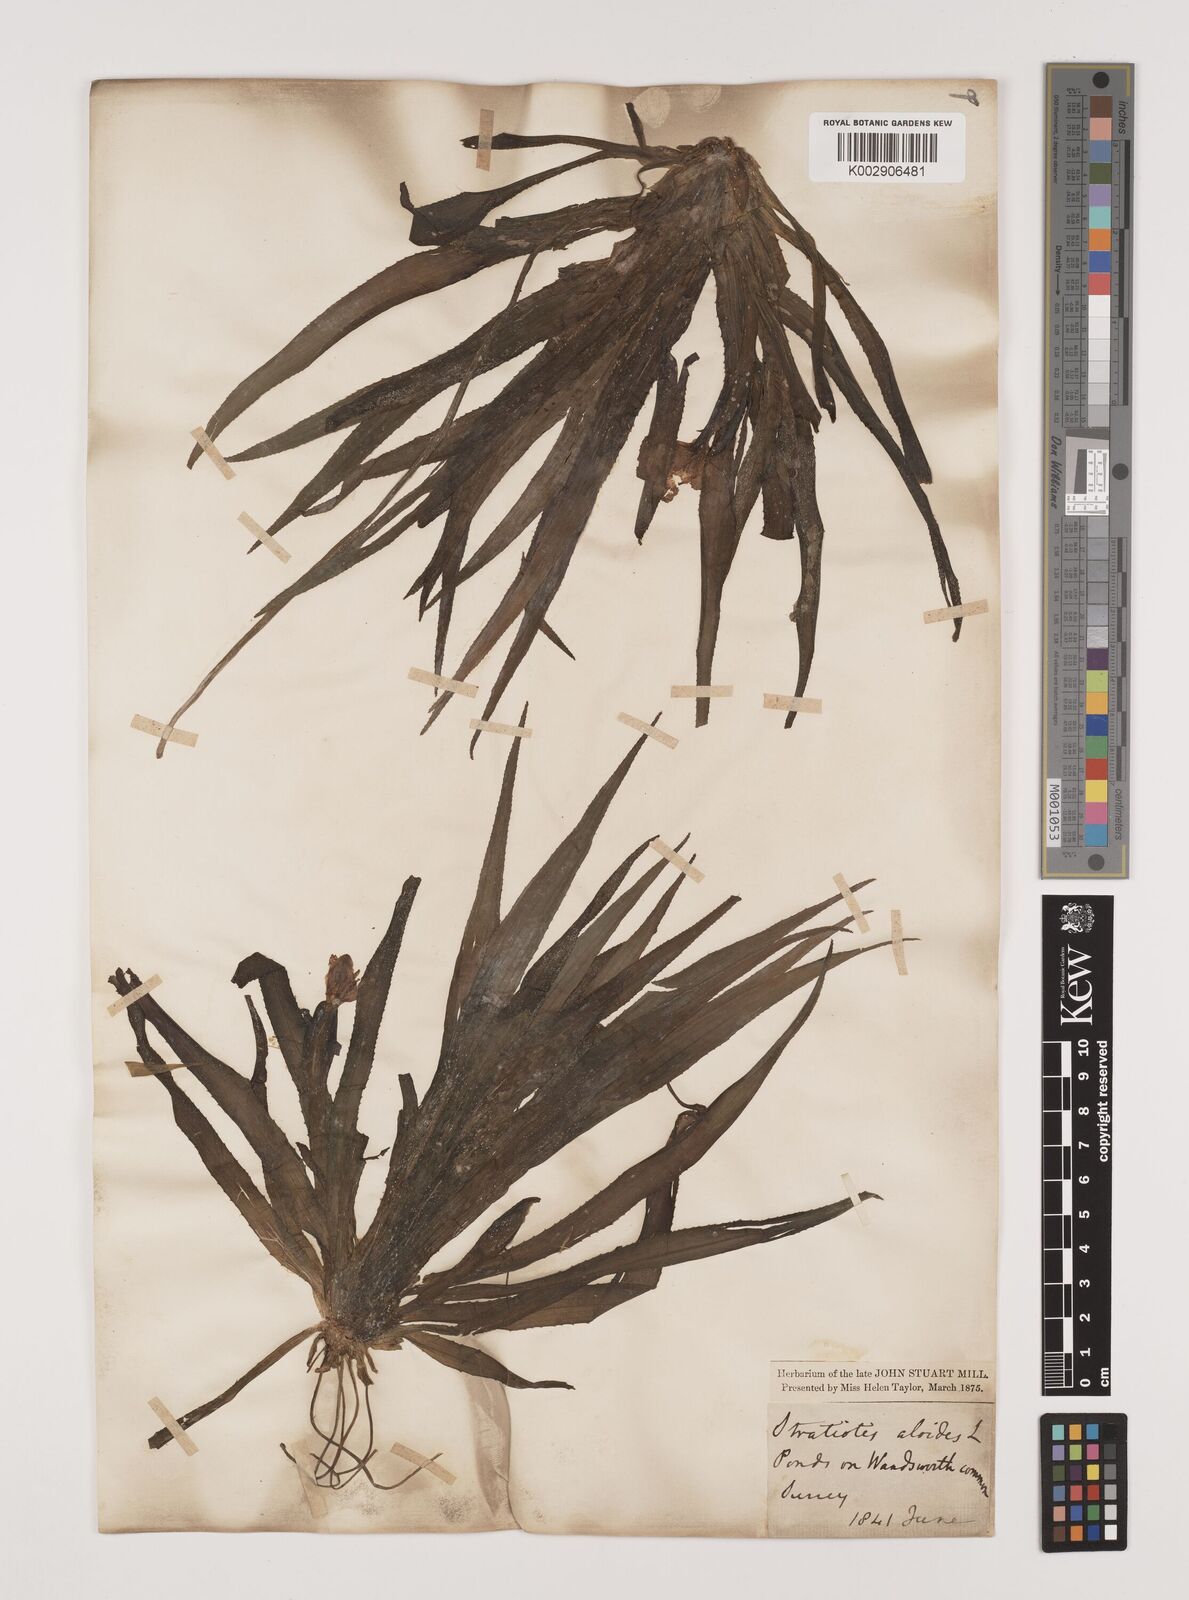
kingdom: Plantae
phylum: Tracheophyta
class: Liliopsida
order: Alismatales
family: Hydrocharitaceae
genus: Stratiotes
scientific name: Stratiotes aloides
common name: Water-soldier
